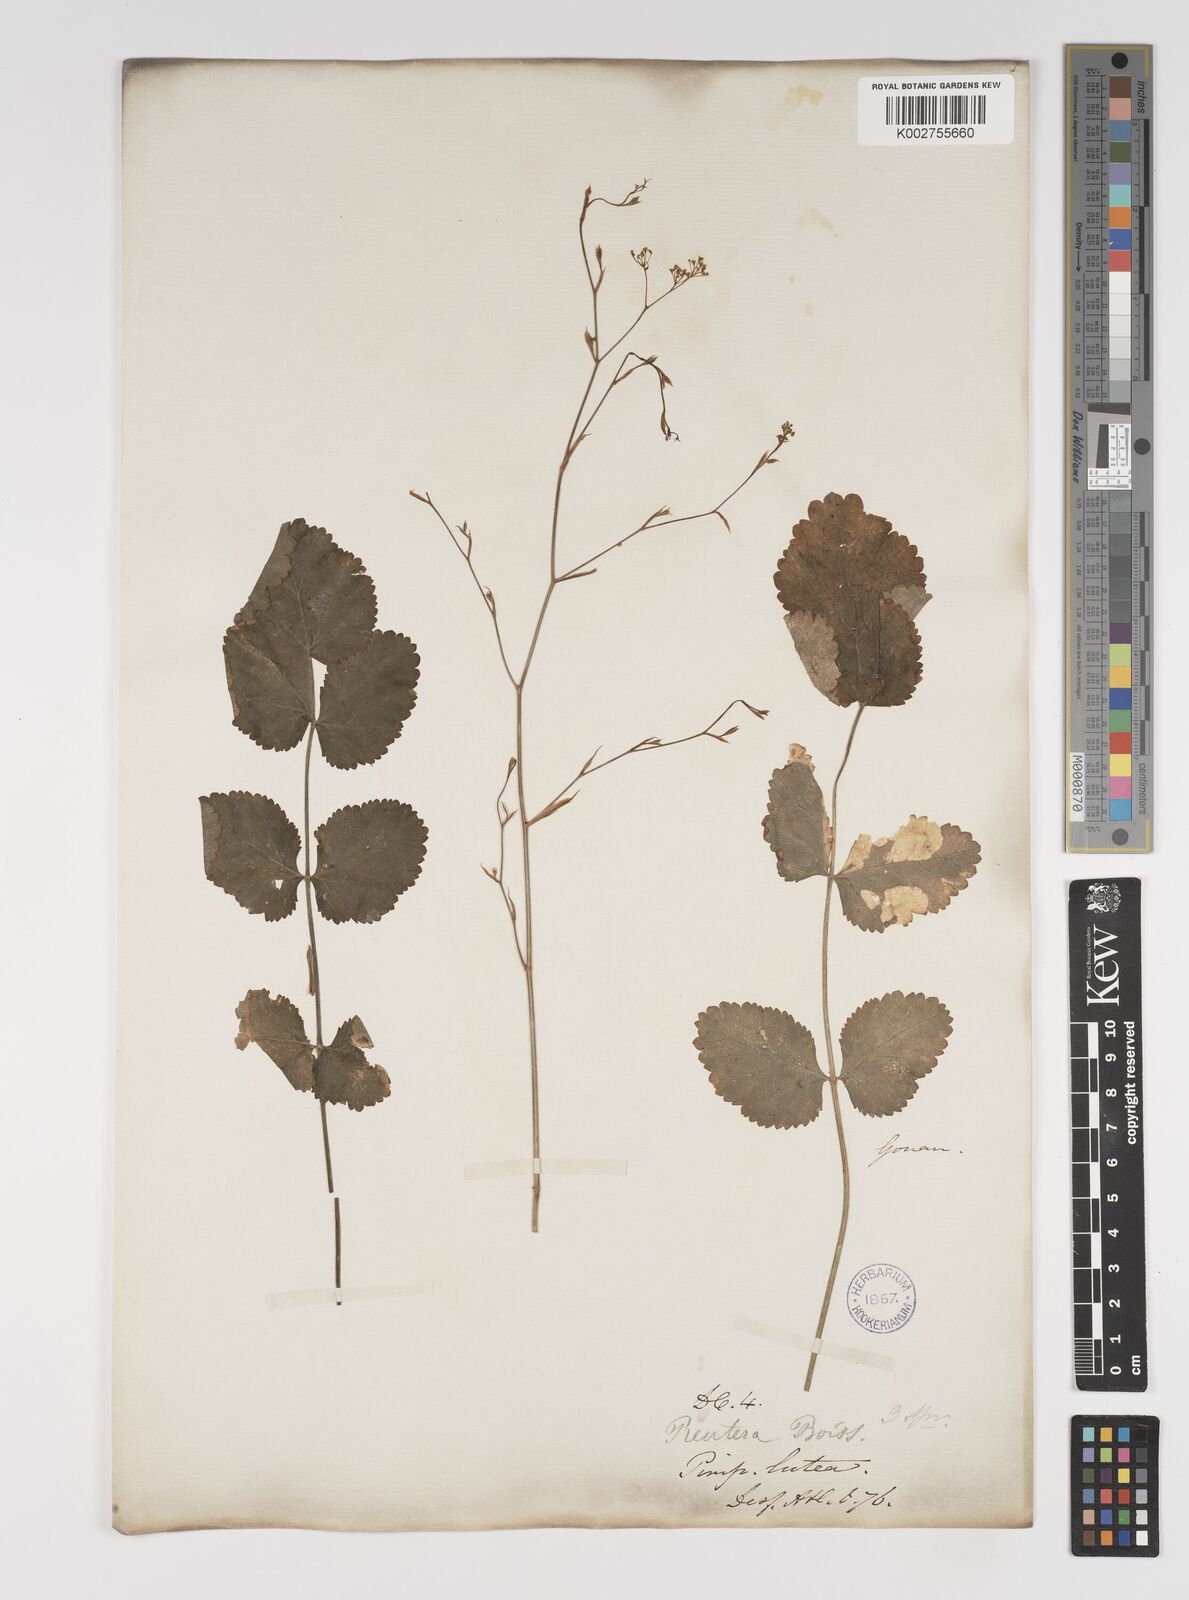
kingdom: Plantae
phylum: Tracheophyta
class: Magnoliopsida
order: Apiales
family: Apiaceae
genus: Pimpinella
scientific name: Pimpinella
